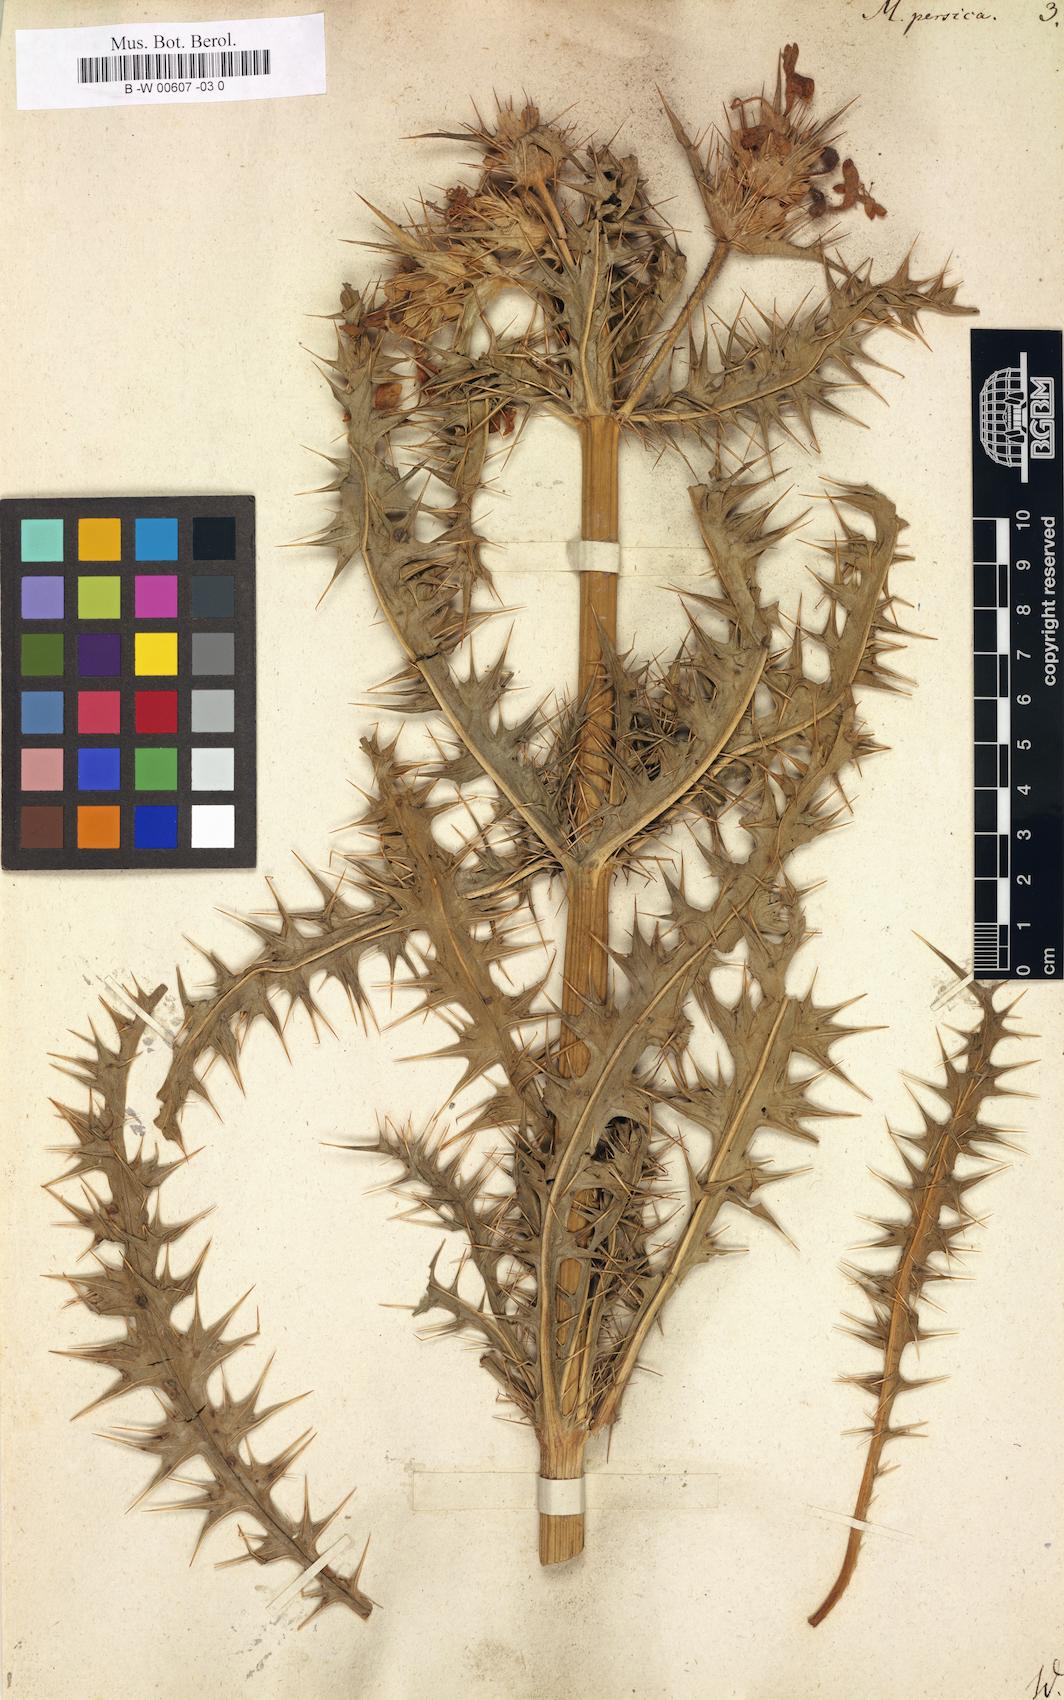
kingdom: Plantae
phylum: Tracheophyta
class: Magnoliopsida
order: Dipsacales
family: Caprifoliaceae
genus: Morina
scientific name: Morina persica
